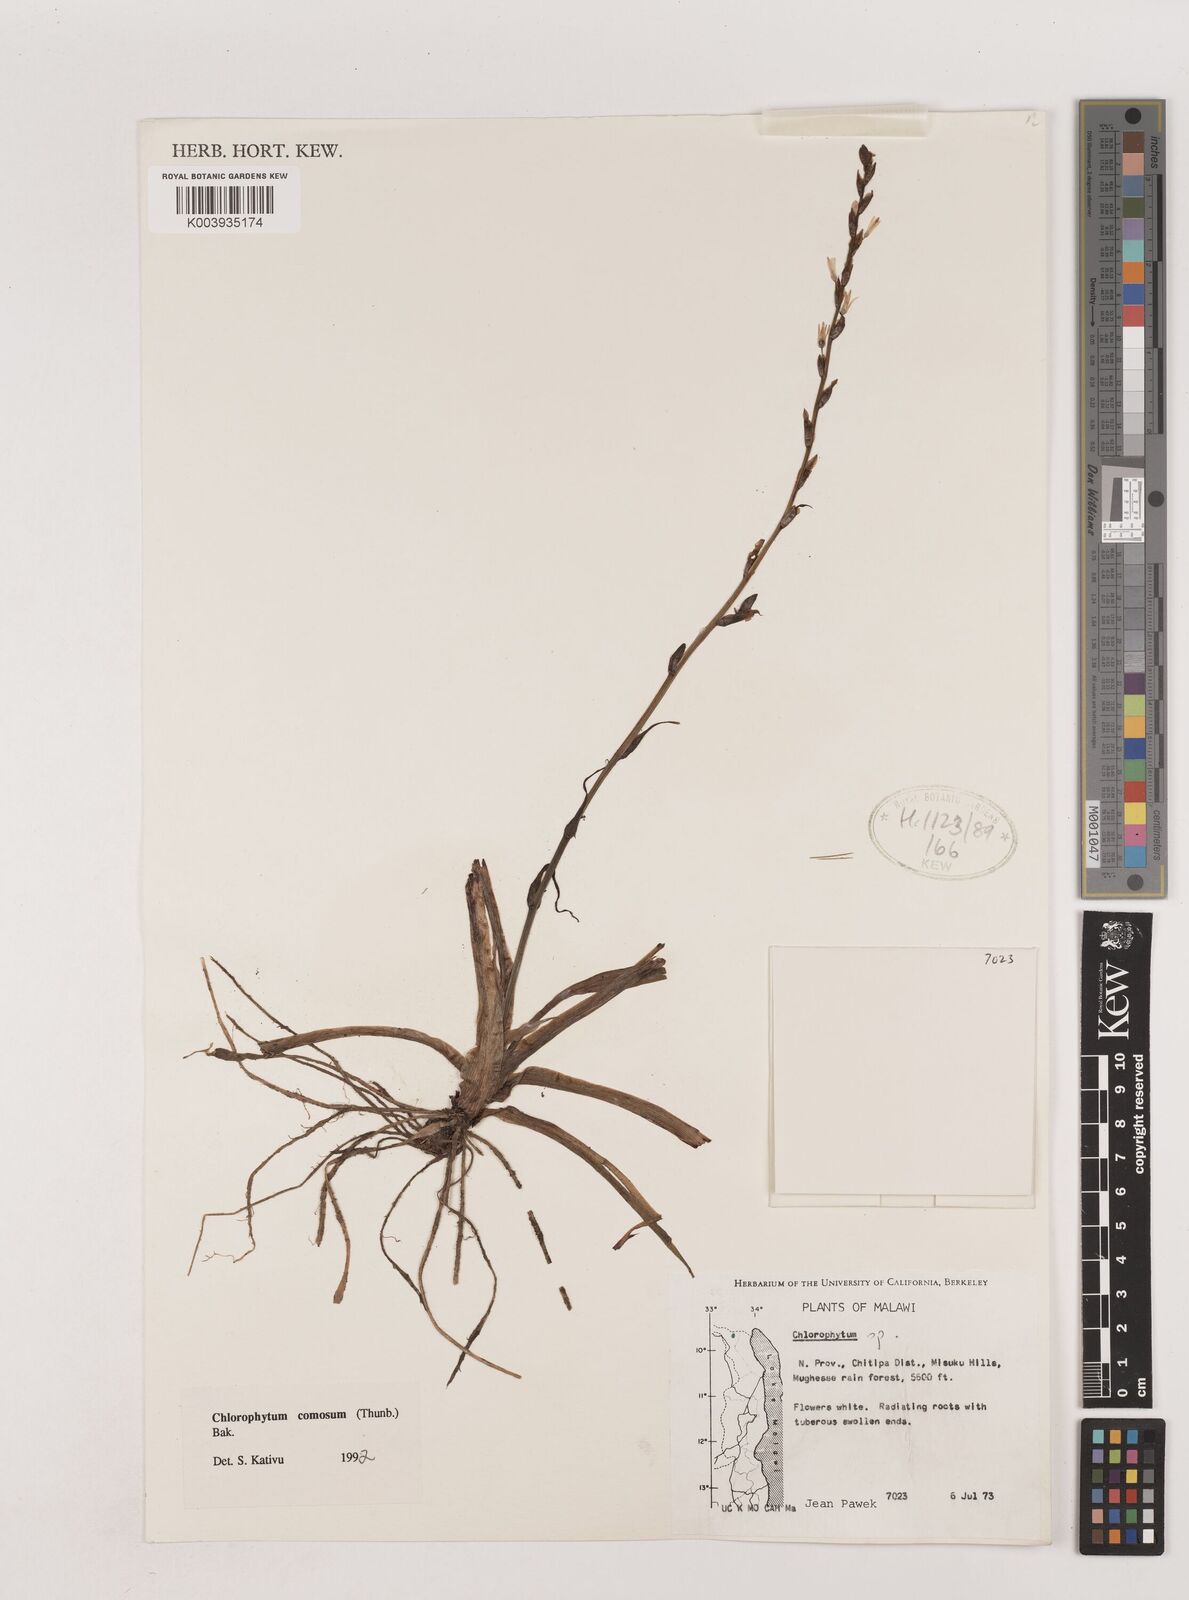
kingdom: Plantae
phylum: Tracheophyta
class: Liliopsida
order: Asparagales
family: Asparagaceae
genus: Chlorophytum
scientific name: Chlorophytum comosum
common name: Spider plant
